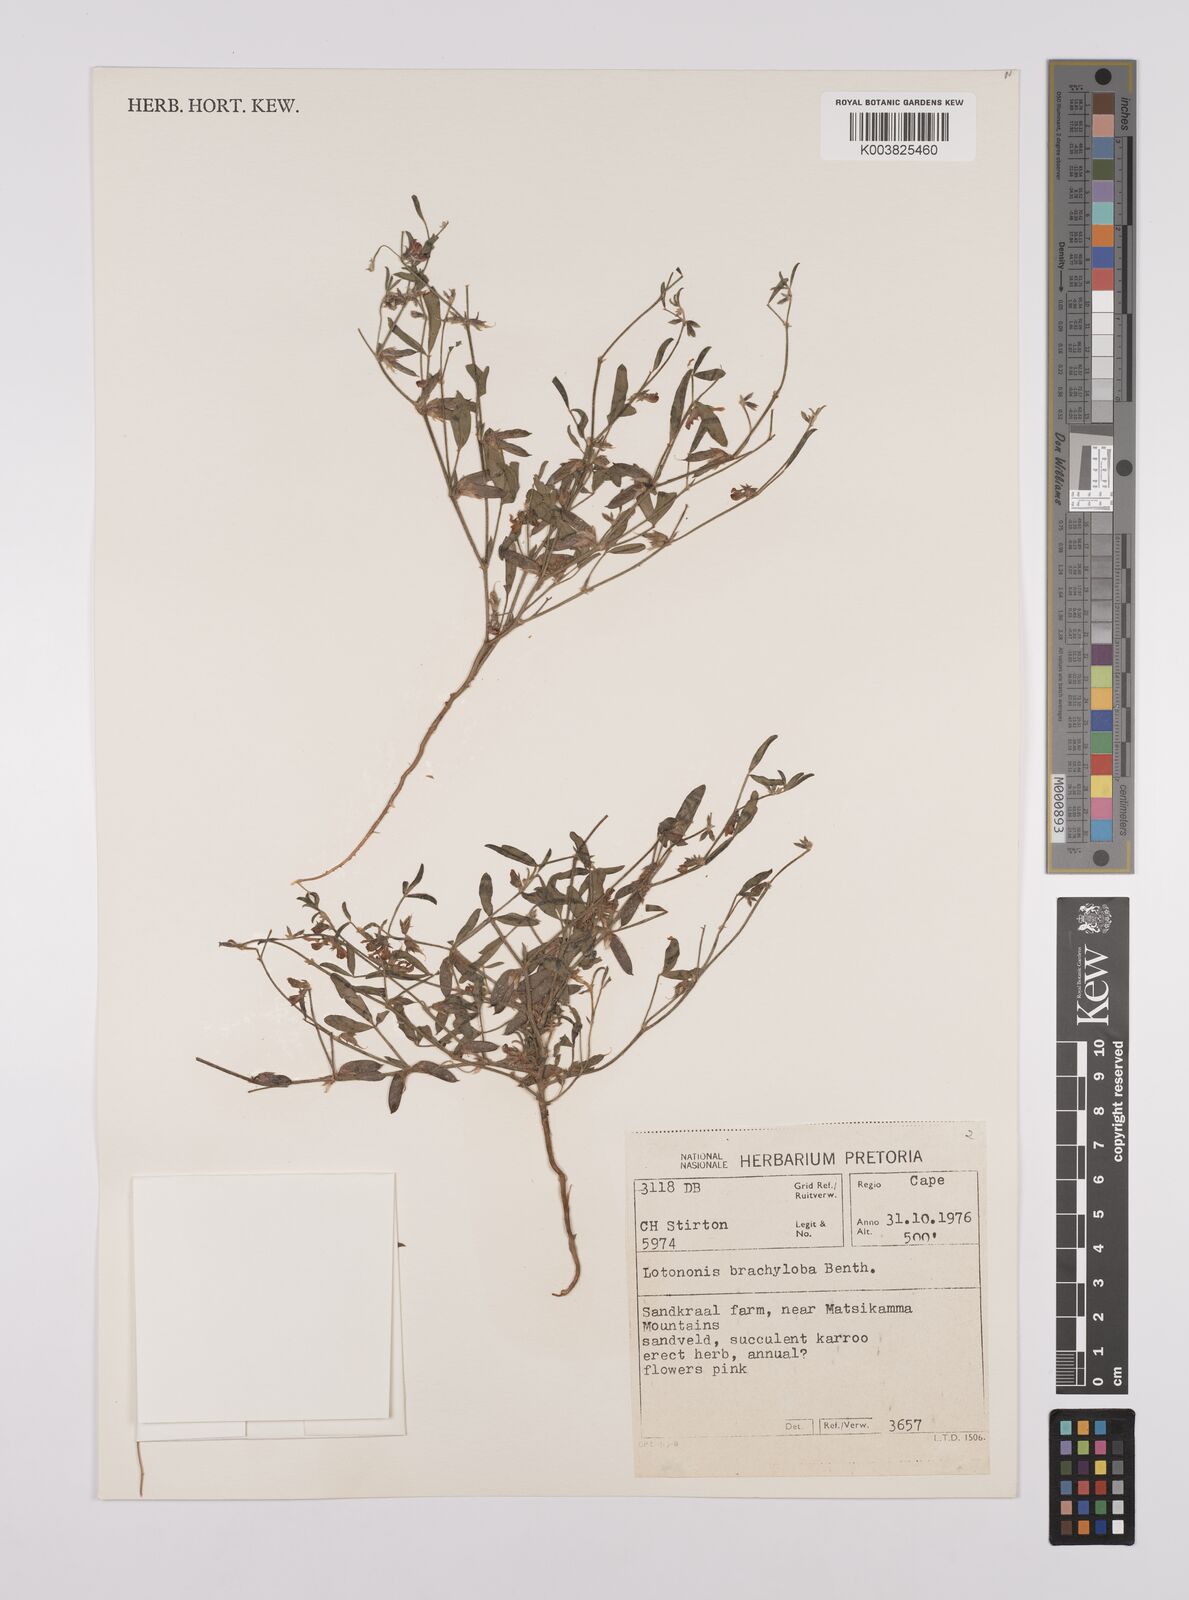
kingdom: Plantae
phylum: Tracheophyta
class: Magnoliopsida
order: Fabales
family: Fabaceae
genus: Lotononis
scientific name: Lotononis parviflora
